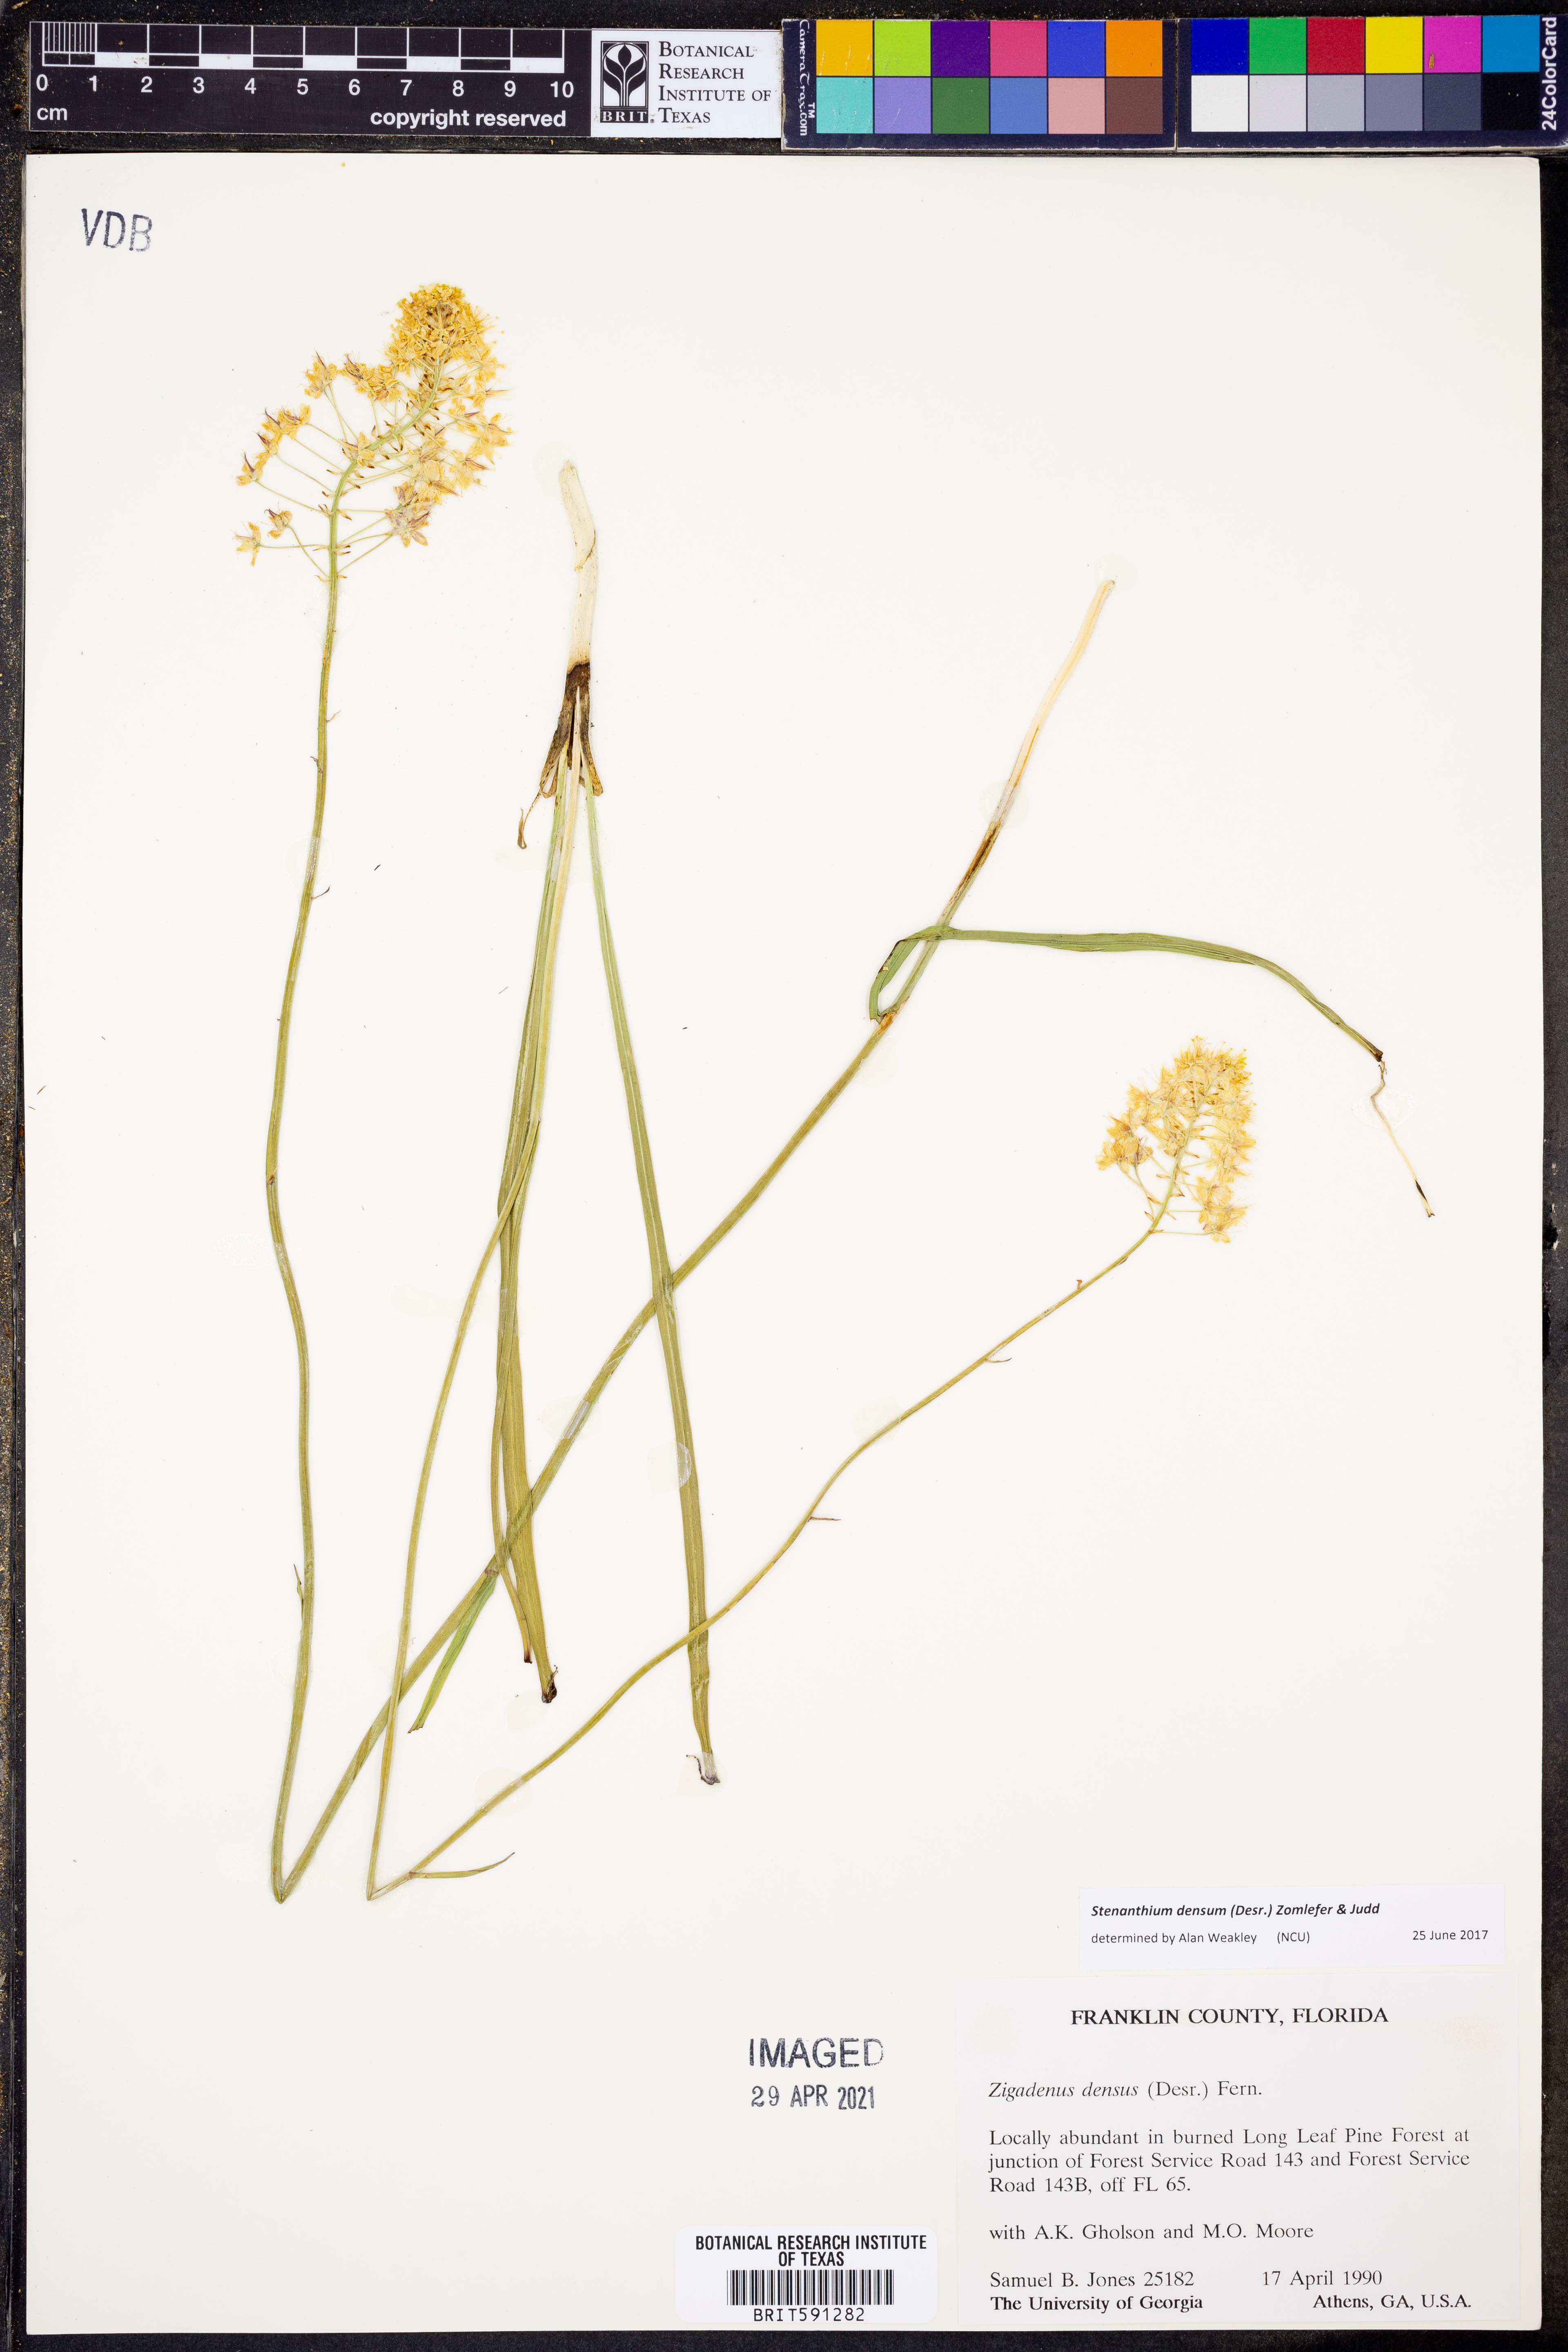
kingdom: Plantae
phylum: Tracheophyta
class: Liliopsida
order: Liliales
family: Melanthiaceae
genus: Stenanthium
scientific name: Stenanthium densum
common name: Crow-poison
